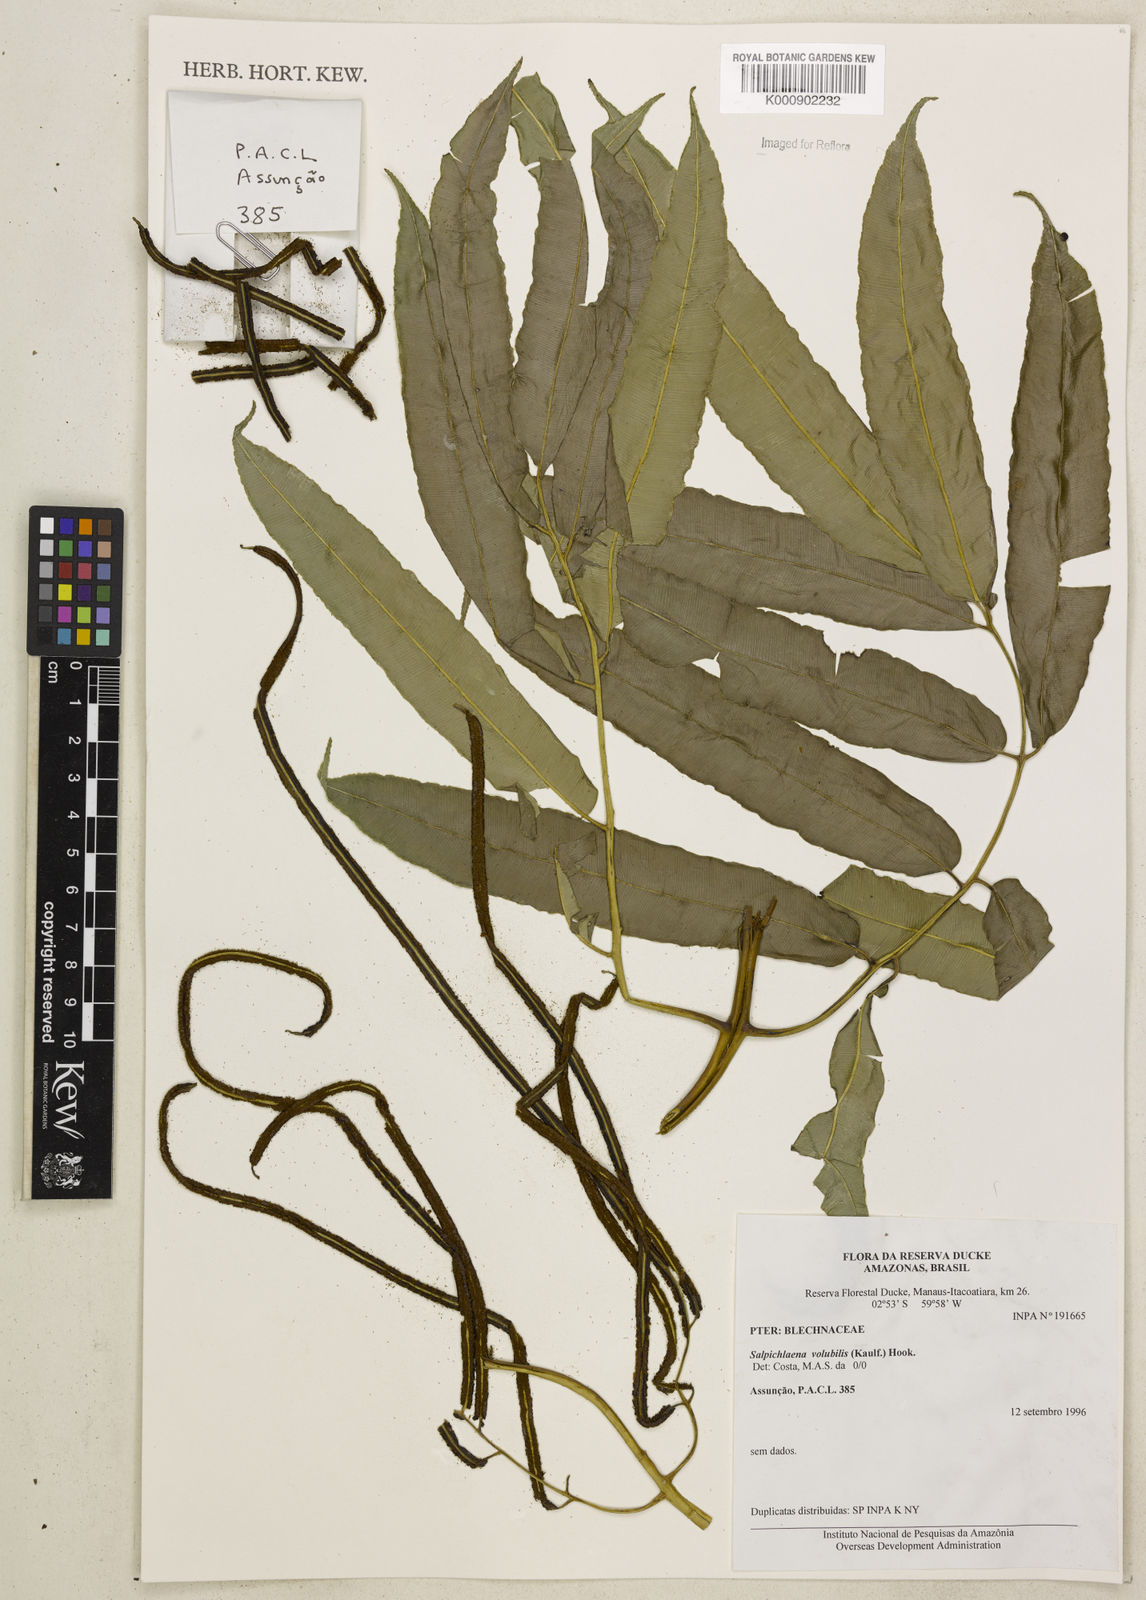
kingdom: Plantae
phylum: Tracheophyta
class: Polypodiopsida
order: Polypodiales
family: Blechnaceae
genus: Salpichlaena
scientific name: Salpichlaena volubilis
